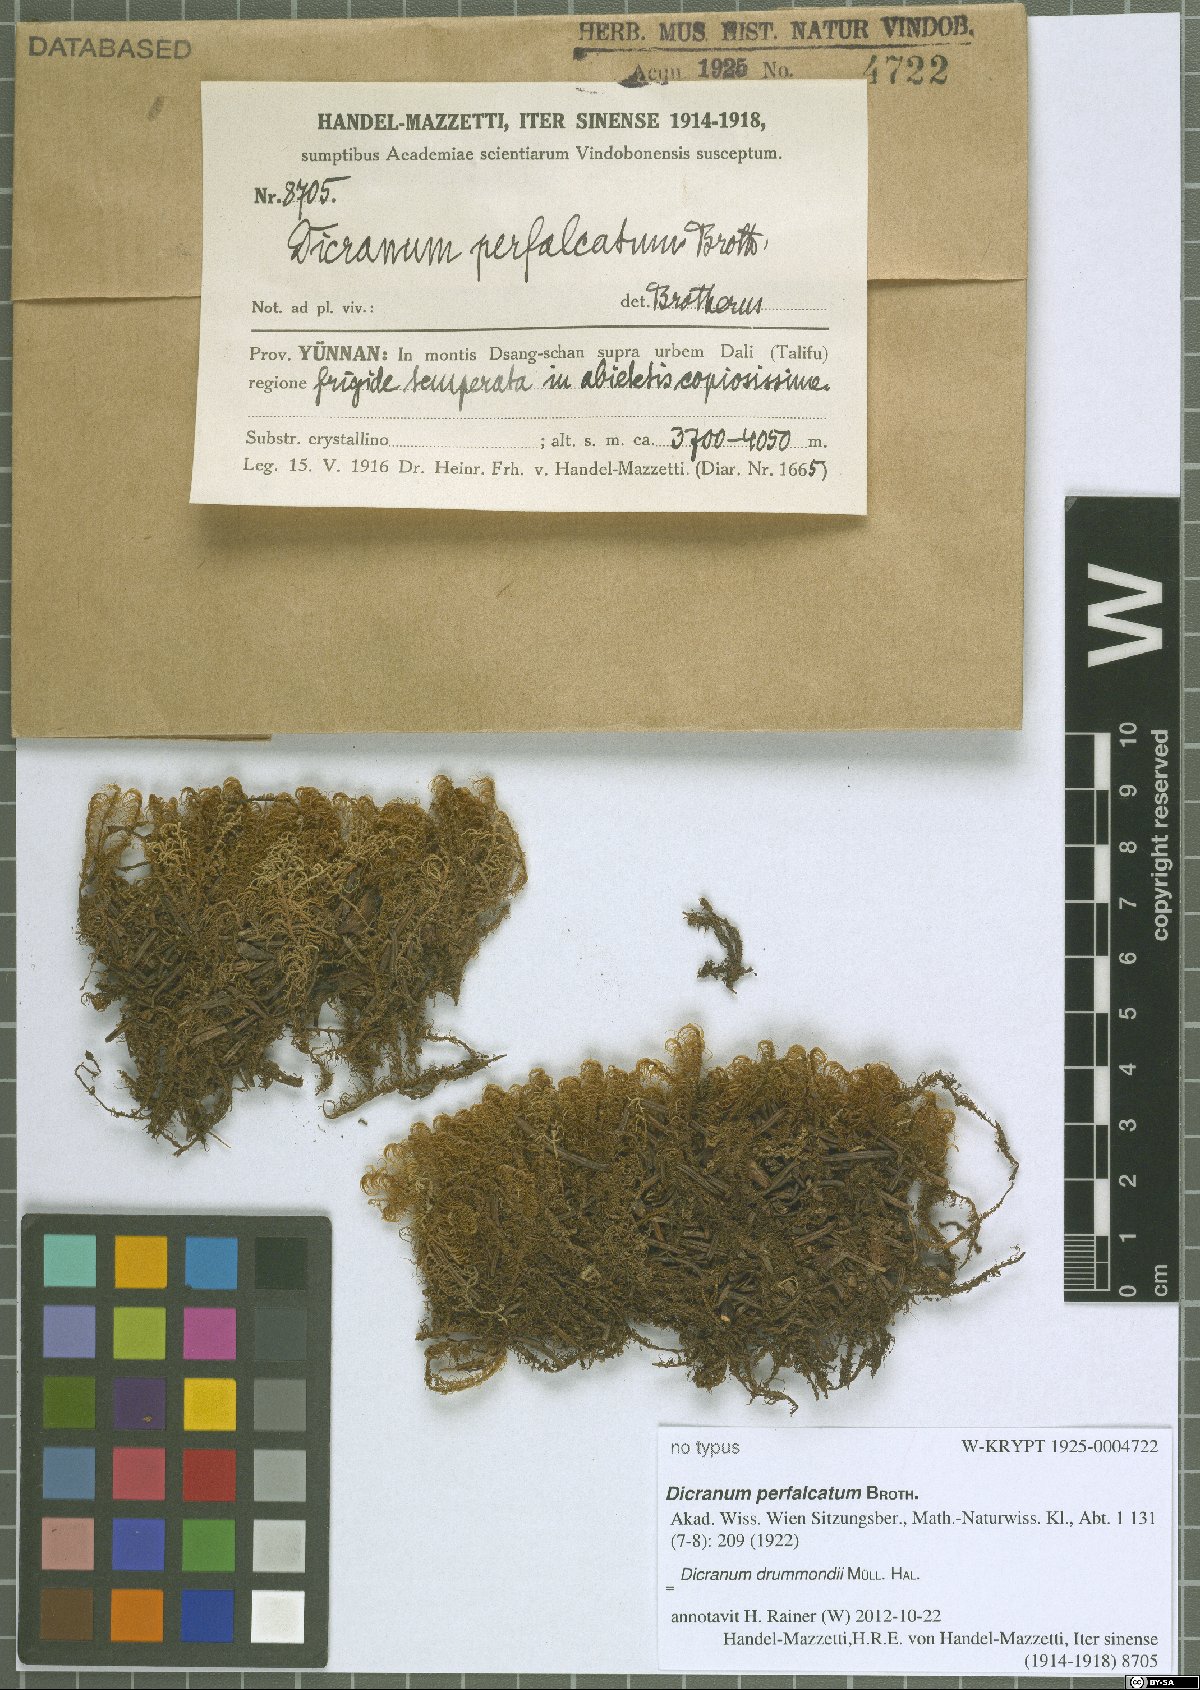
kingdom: Plantae
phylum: Bryophyta
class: Bryopsida
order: Dicranales
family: Dicranaceae
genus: Dicranum
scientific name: Dicranum drummondii
